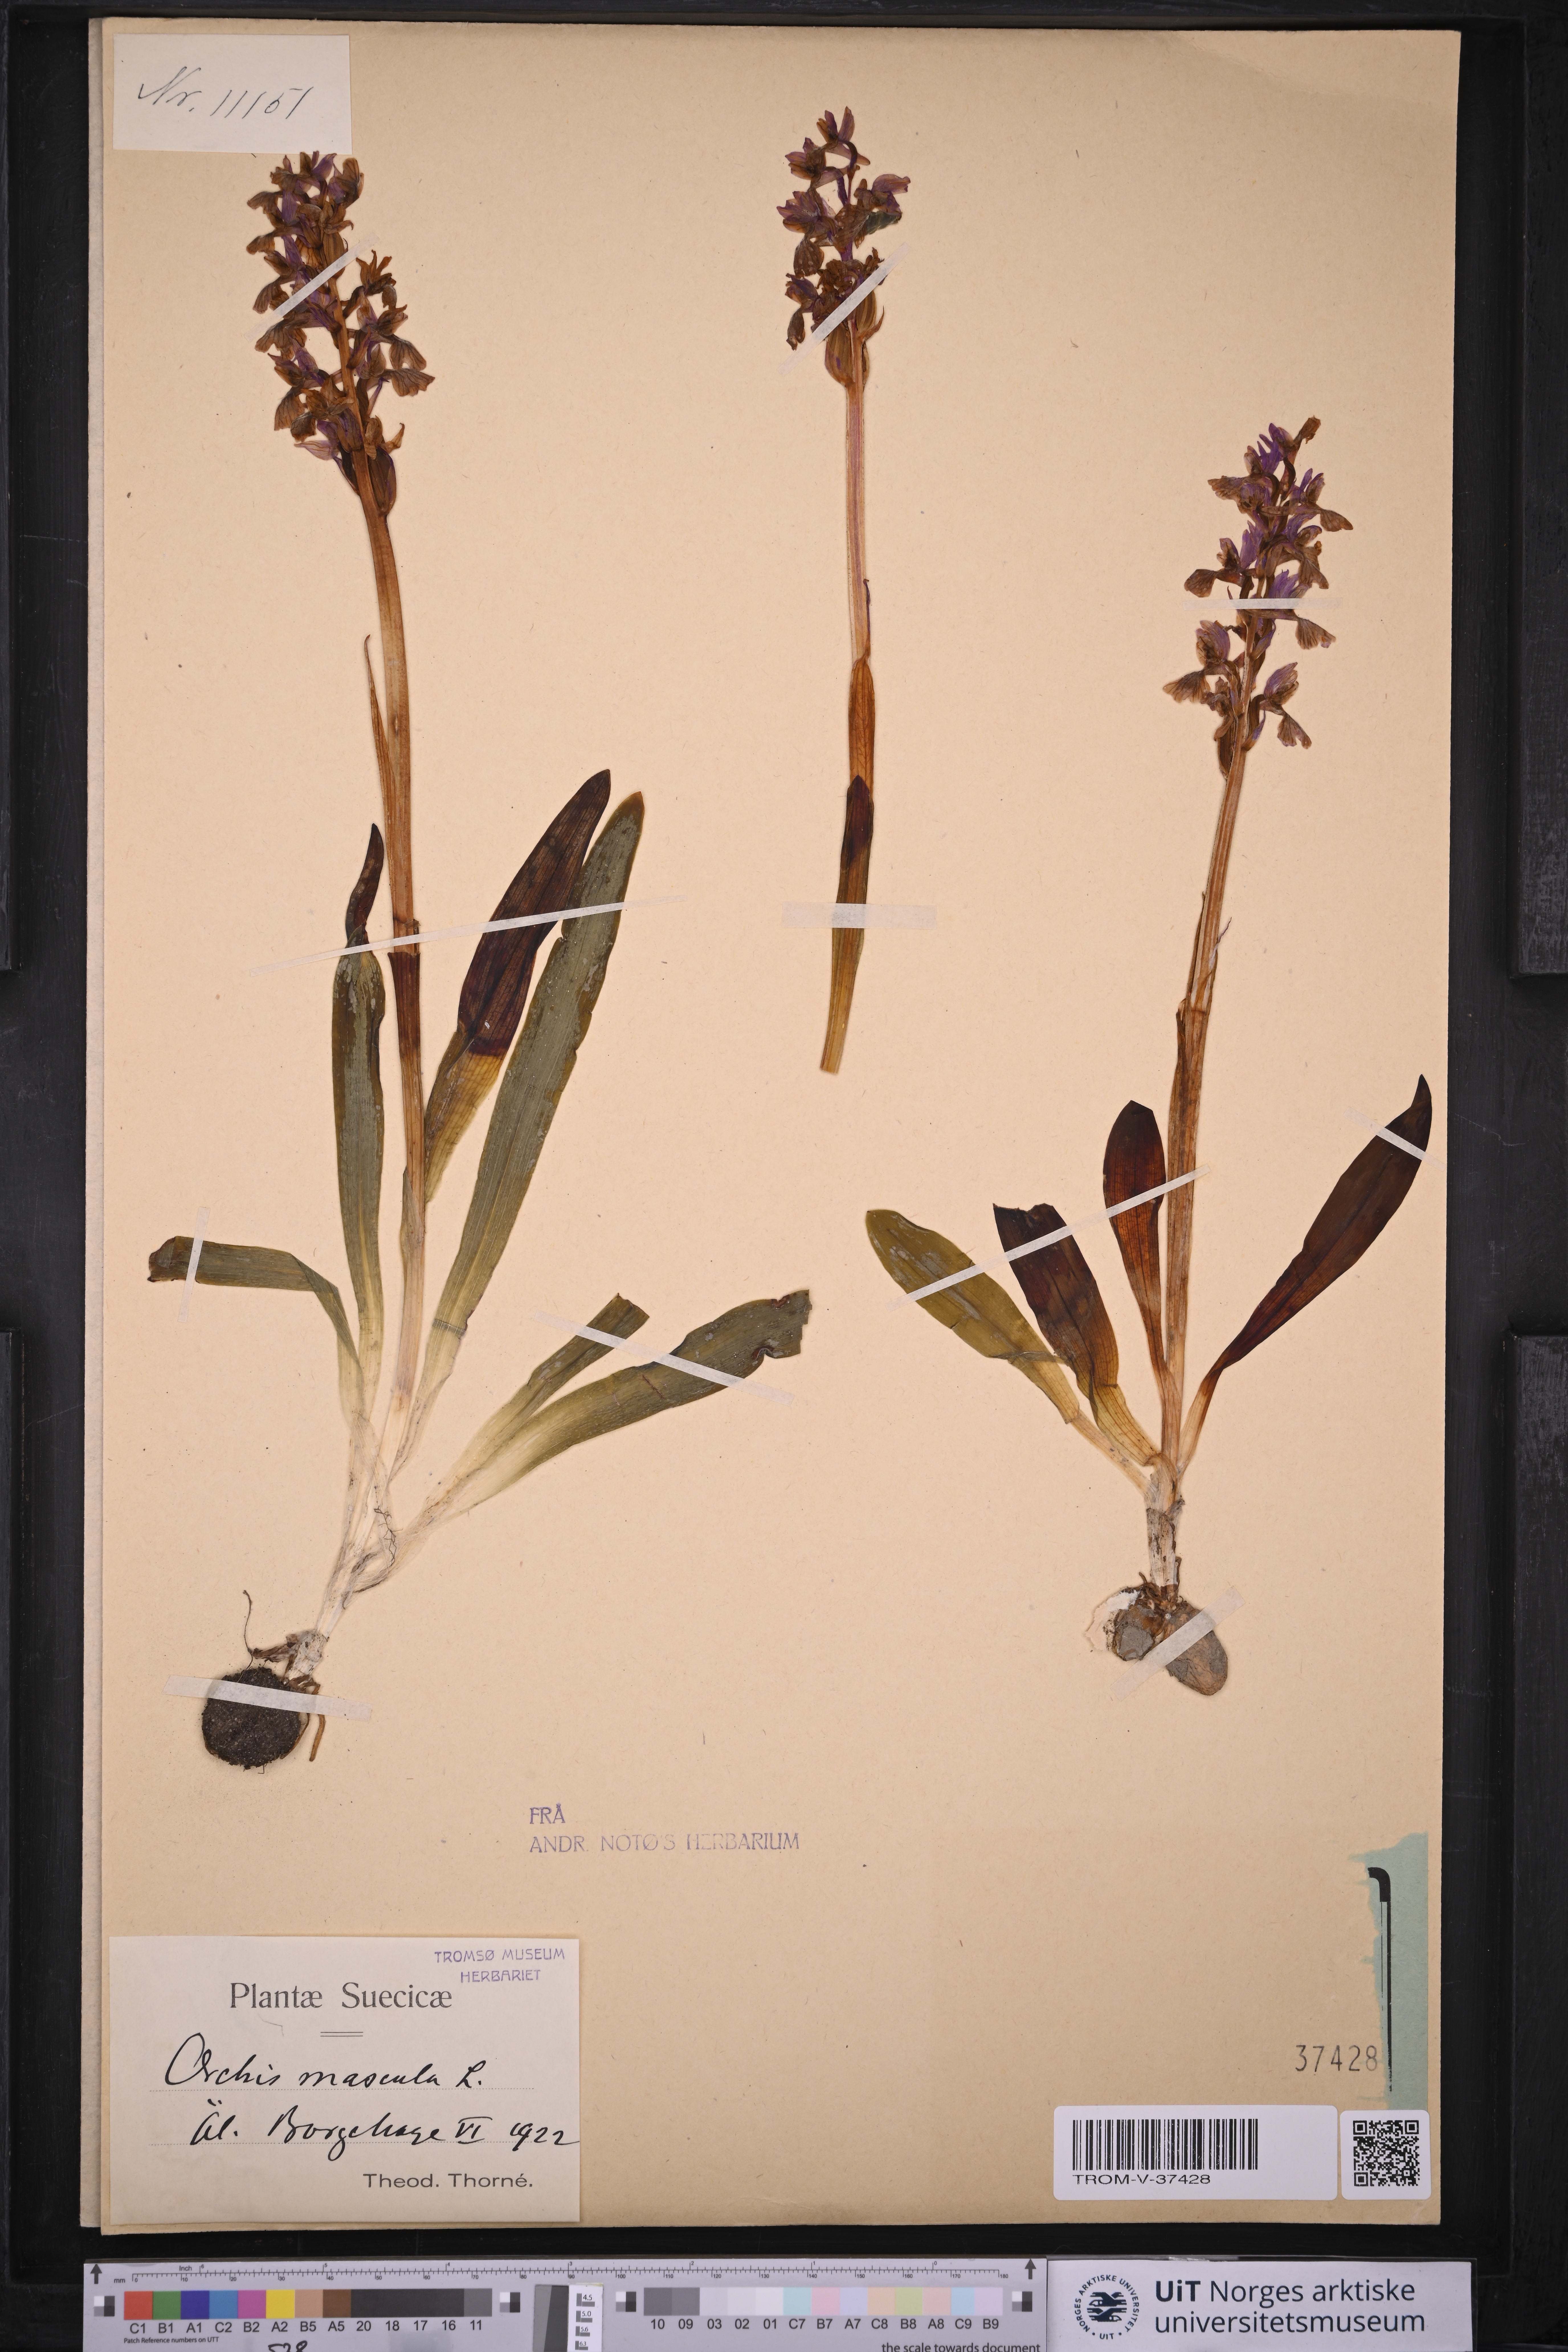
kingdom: Plantae
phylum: Tracheophyta
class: Liliopsida
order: Asparagales
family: Orchidaceae
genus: Orchis
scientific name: Orchis mascula
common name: Early-purple orchid
